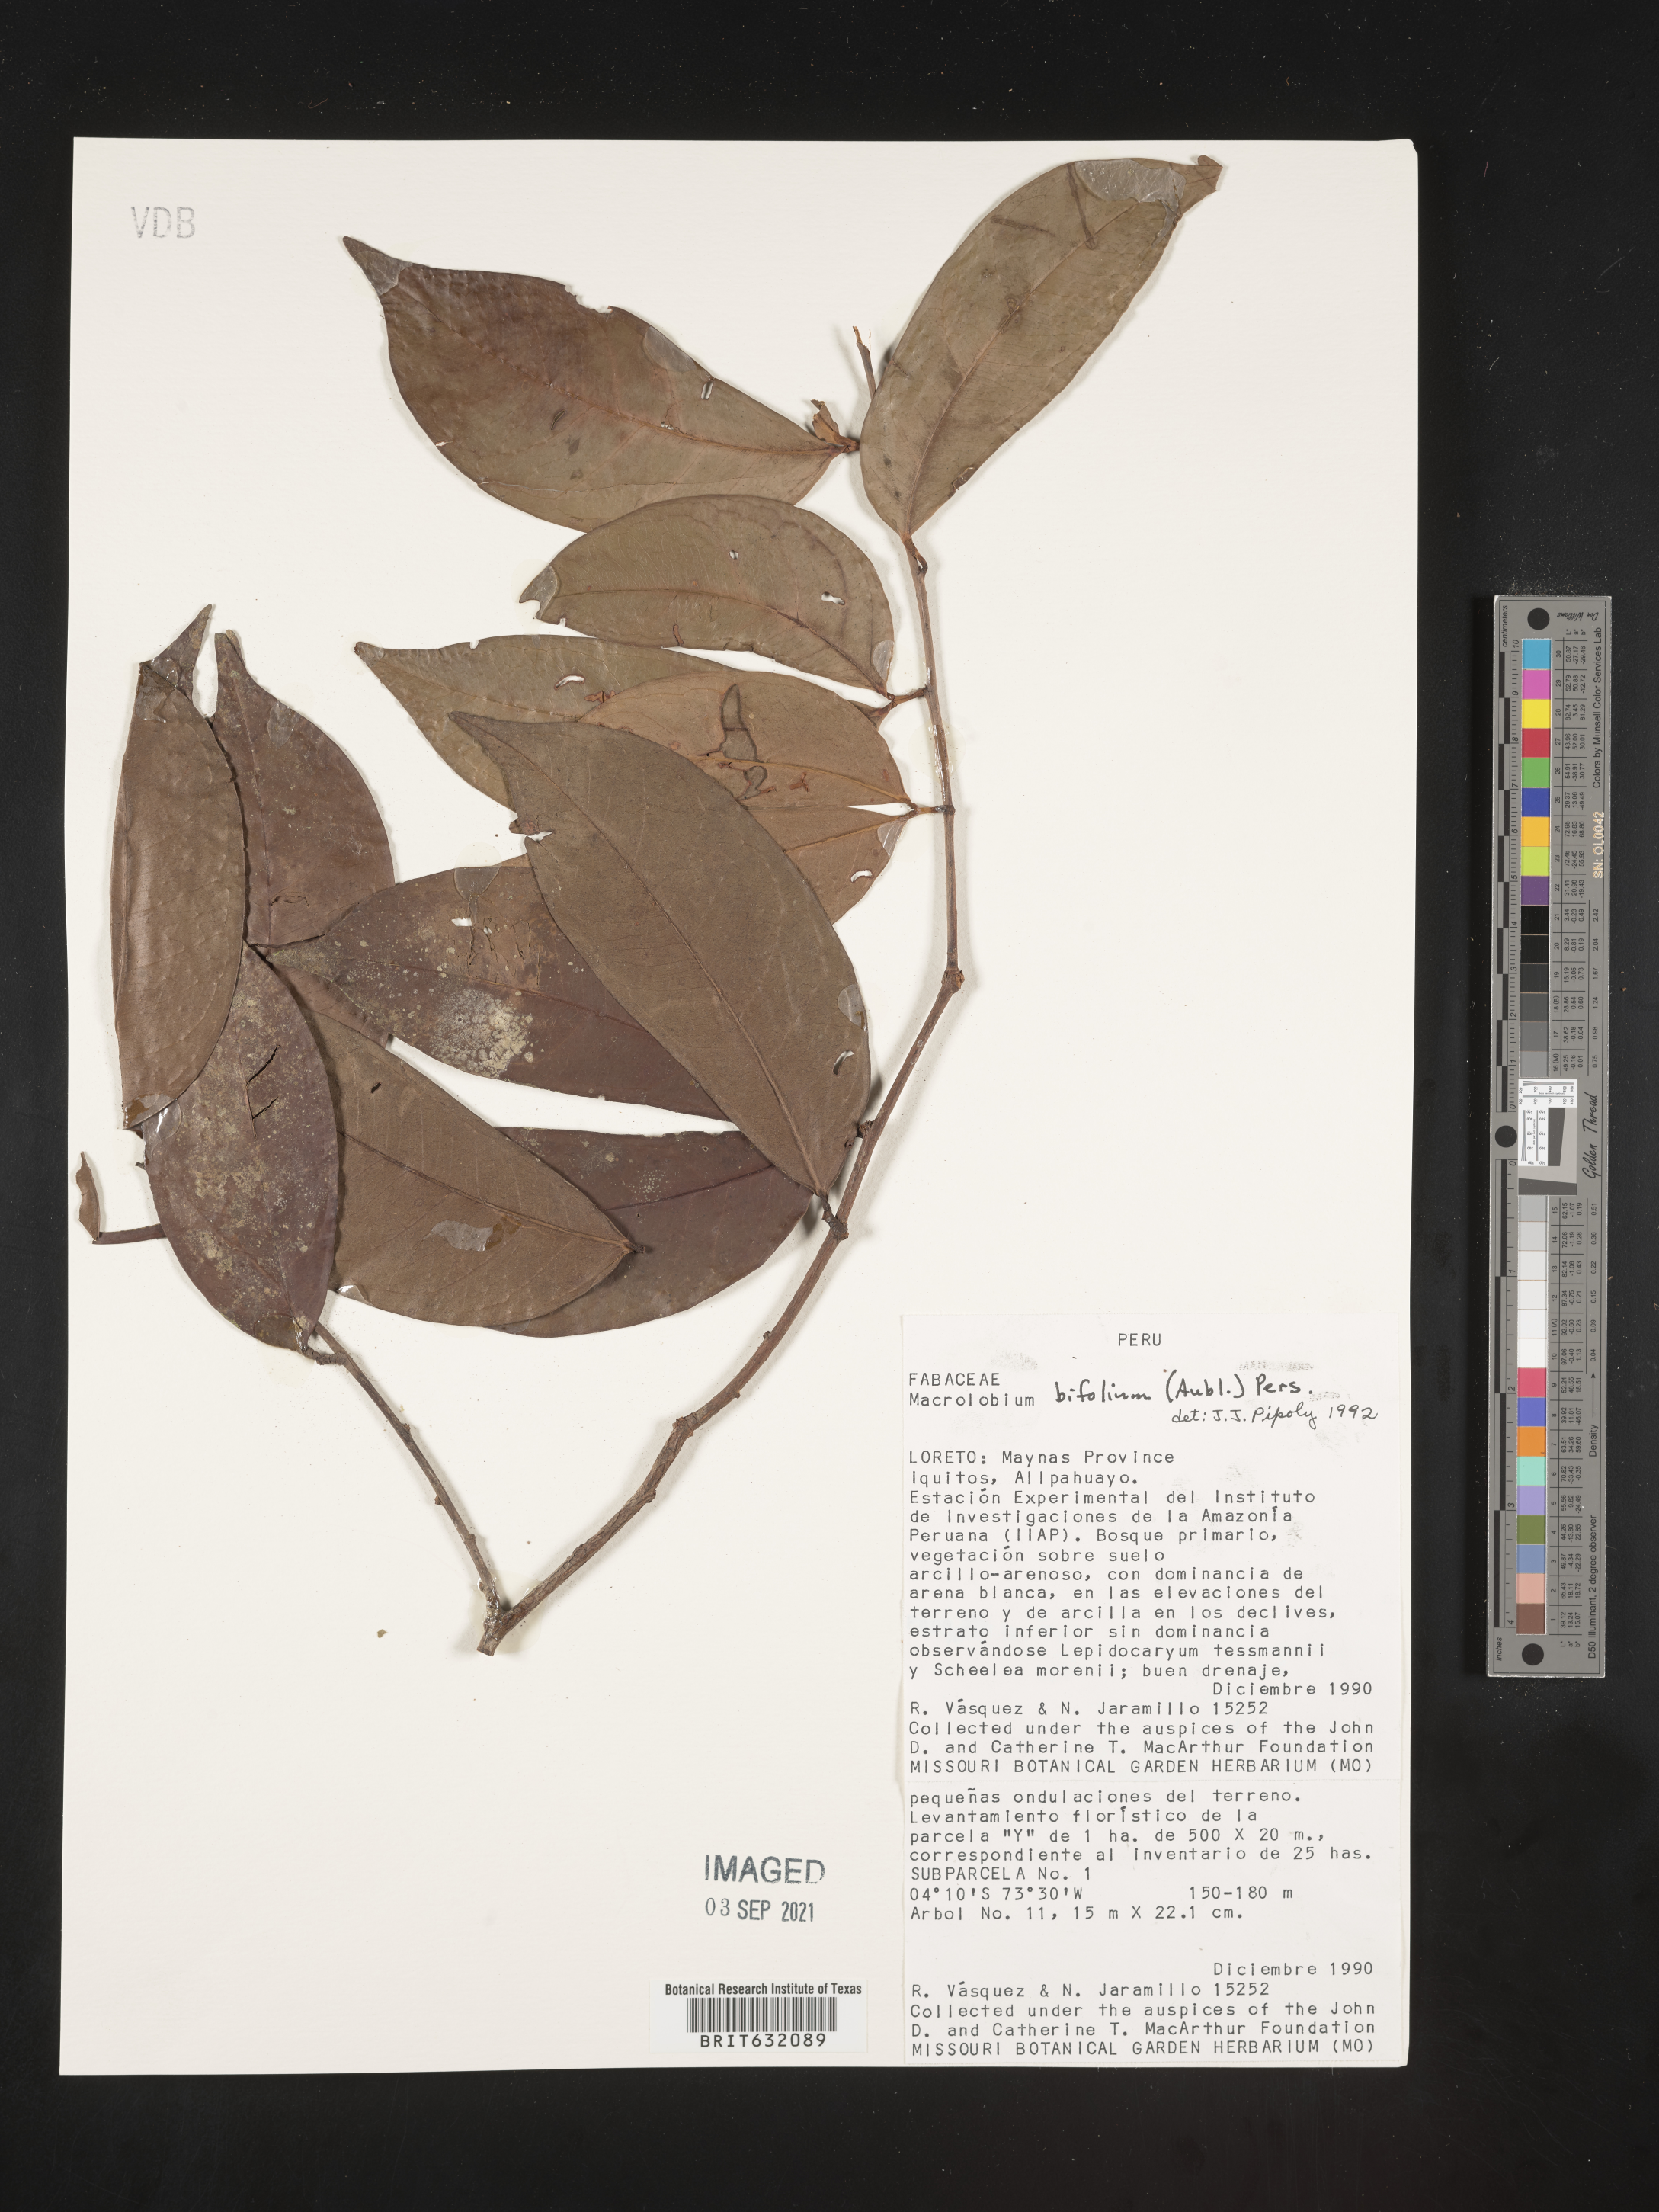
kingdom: Plantae
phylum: Tracheophyta
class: Magnoliopsida
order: Fabales
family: Fabaceae
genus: Macrolobium
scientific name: Macrolobium
